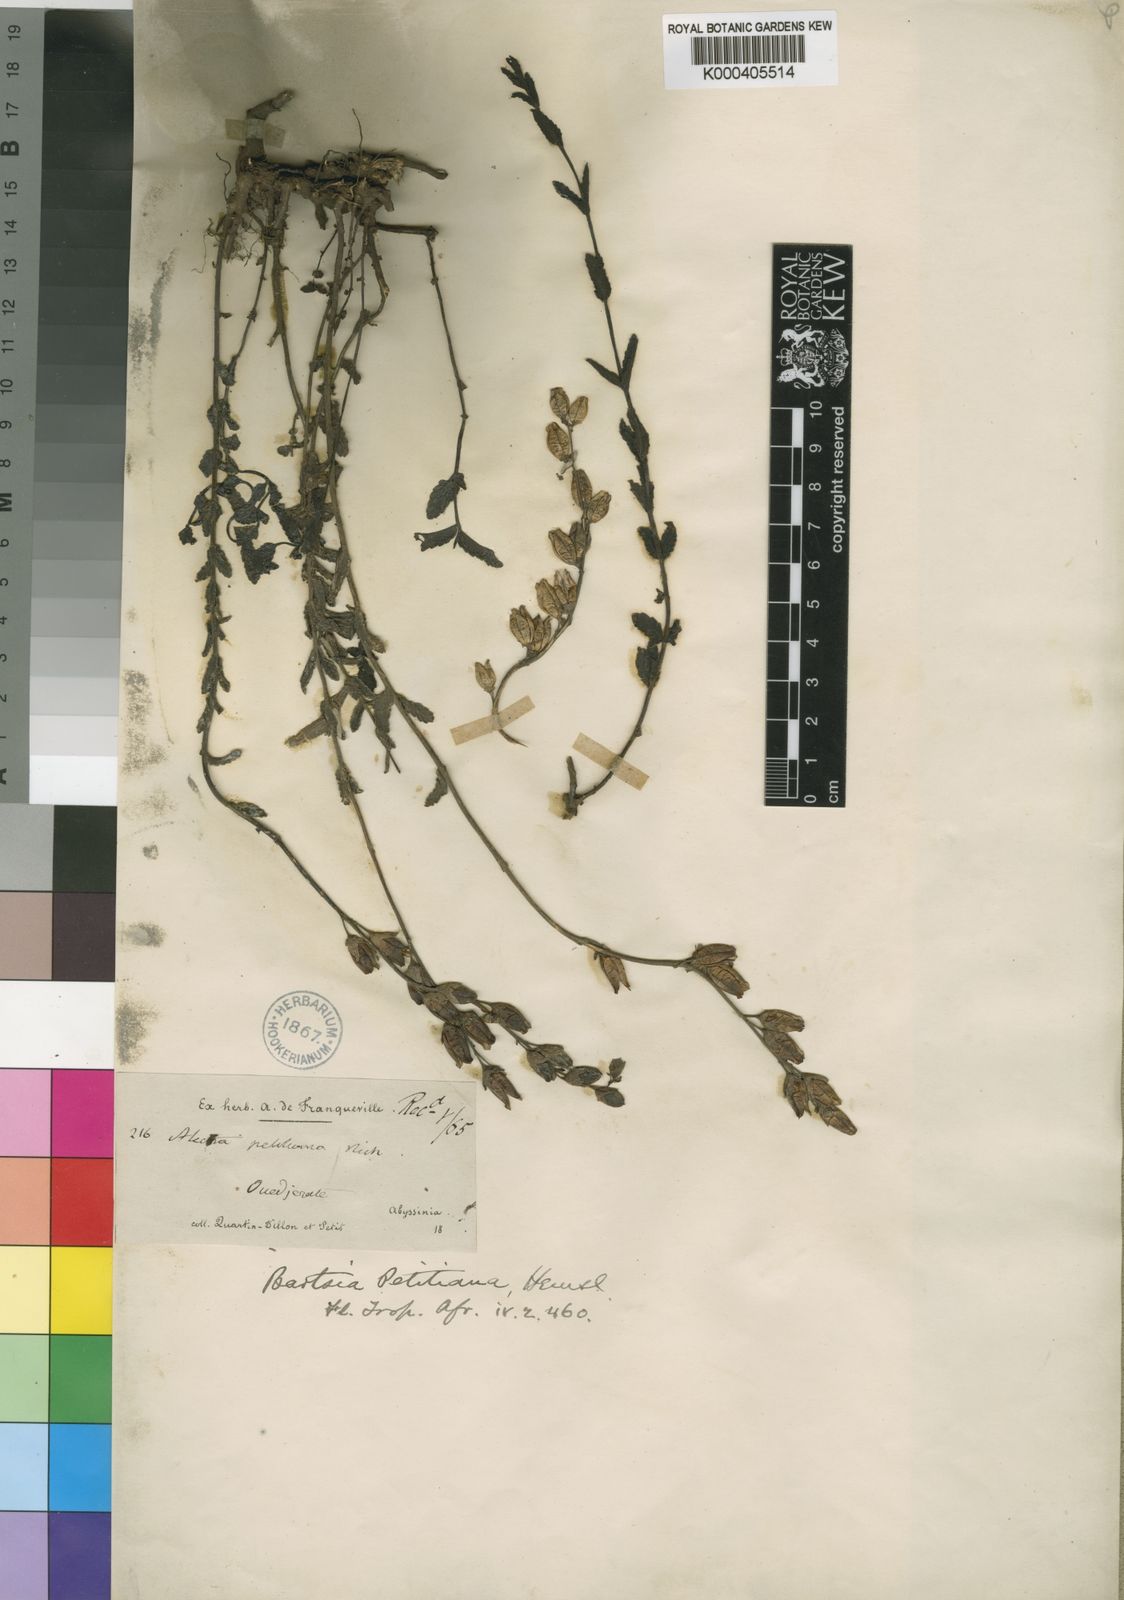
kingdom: Plantae
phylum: Tracheophyta
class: Magnoliopsida
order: Lamiales
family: Orobanchaceae
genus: Hedbergia
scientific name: Hedbergia abyssinica
